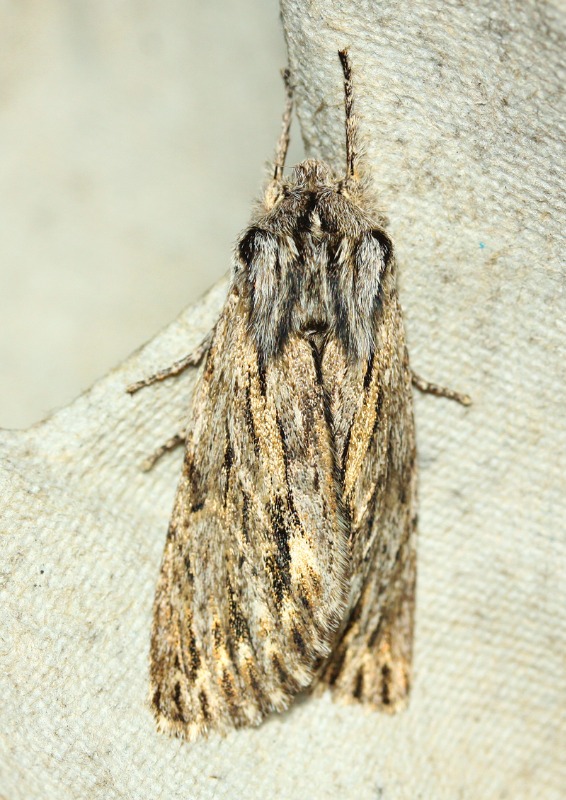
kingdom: Animalia
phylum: Arthropoda
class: Insecta
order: Lepidoptera
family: Noctuidae
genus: Asteroscopus
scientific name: Asteroscopus sphinx
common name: Sfinksugle
